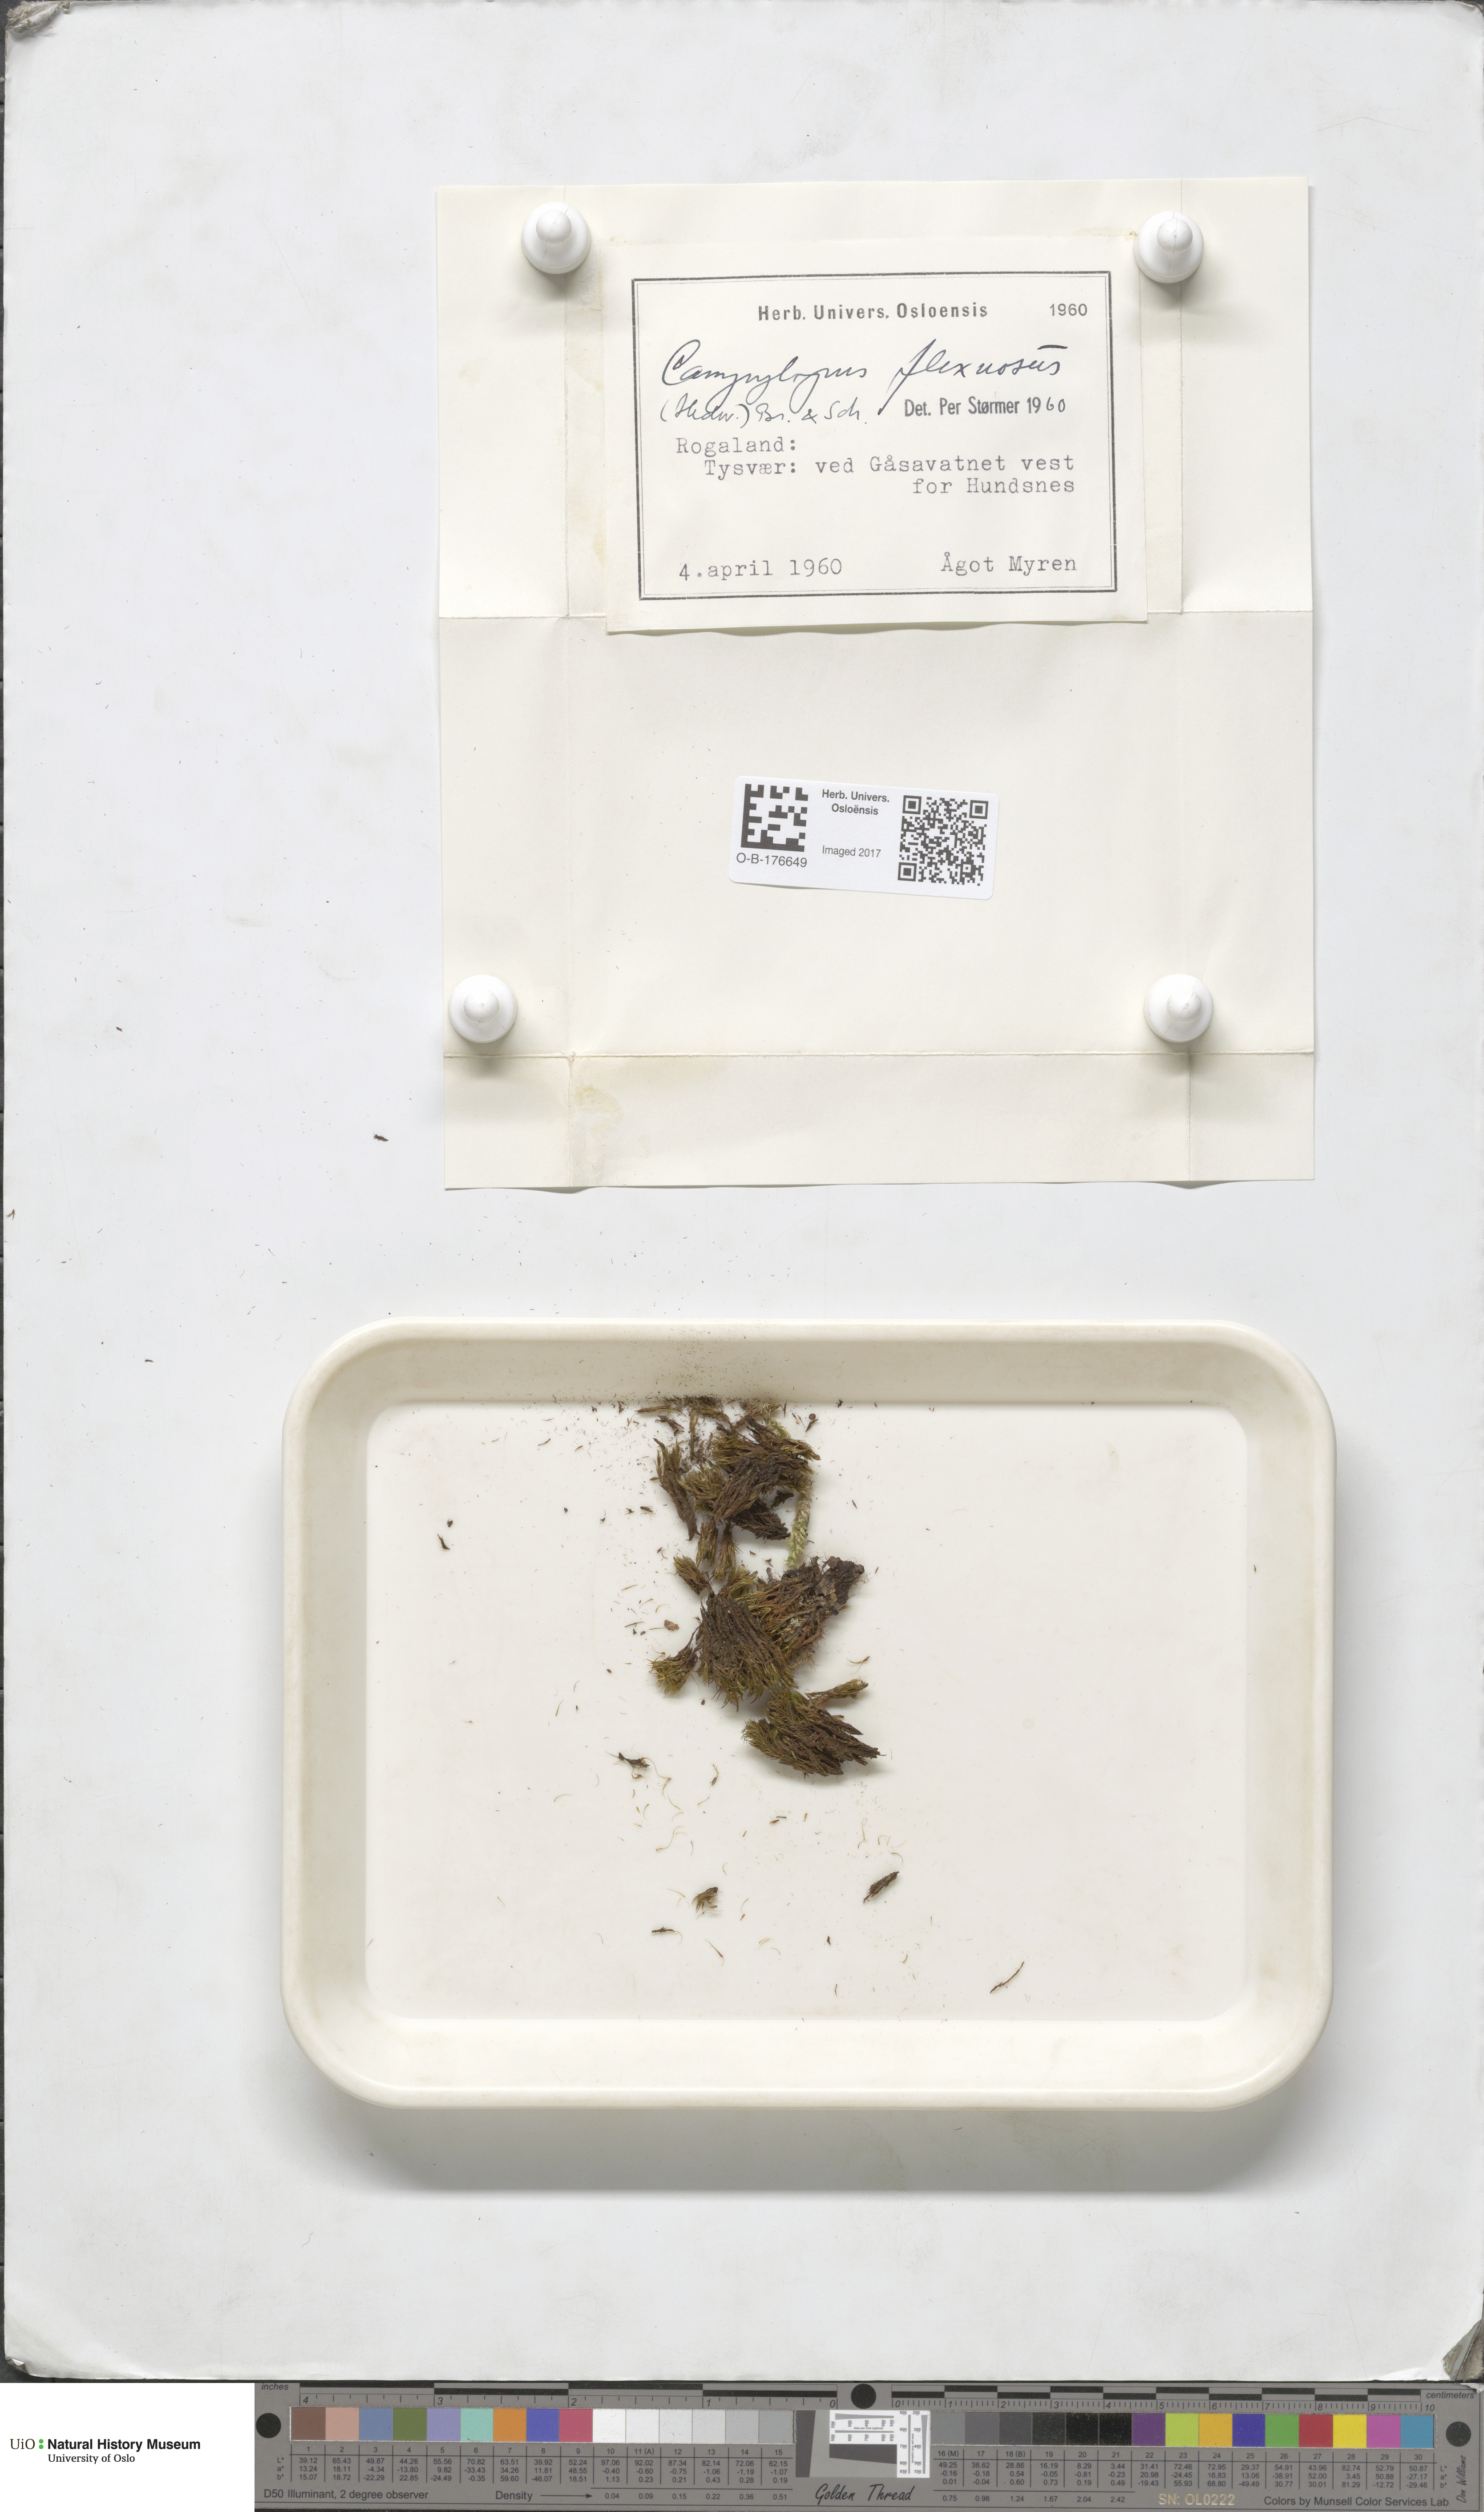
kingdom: Plantae
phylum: Bryophyta
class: Bryopsida
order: Dicranales
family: Leucobryaceae
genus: Campylopus
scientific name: Campylopus flexuosus
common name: Rusty swan-neck moss
